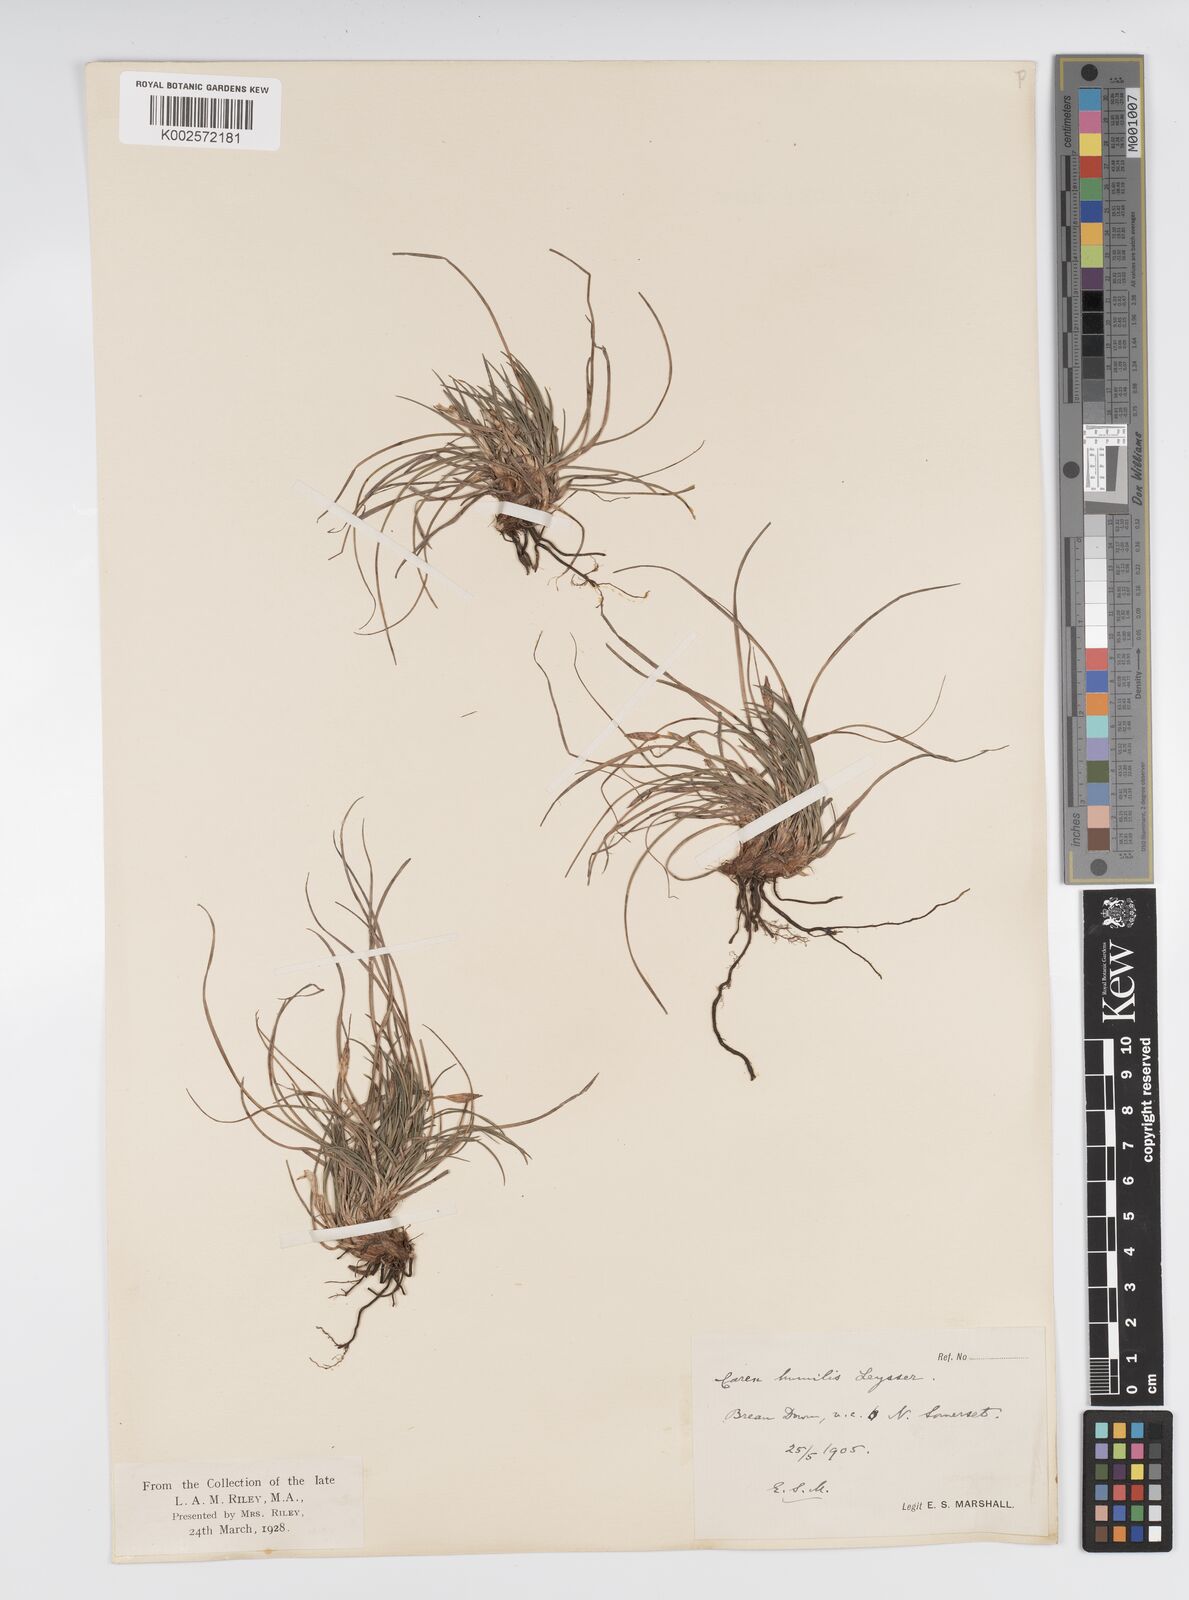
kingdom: Plantae
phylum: Tracheophyta
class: Liliopsida
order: Poales
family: Cyperaceae
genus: Carex
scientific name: Carex humilis
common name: Dwarf sedge
